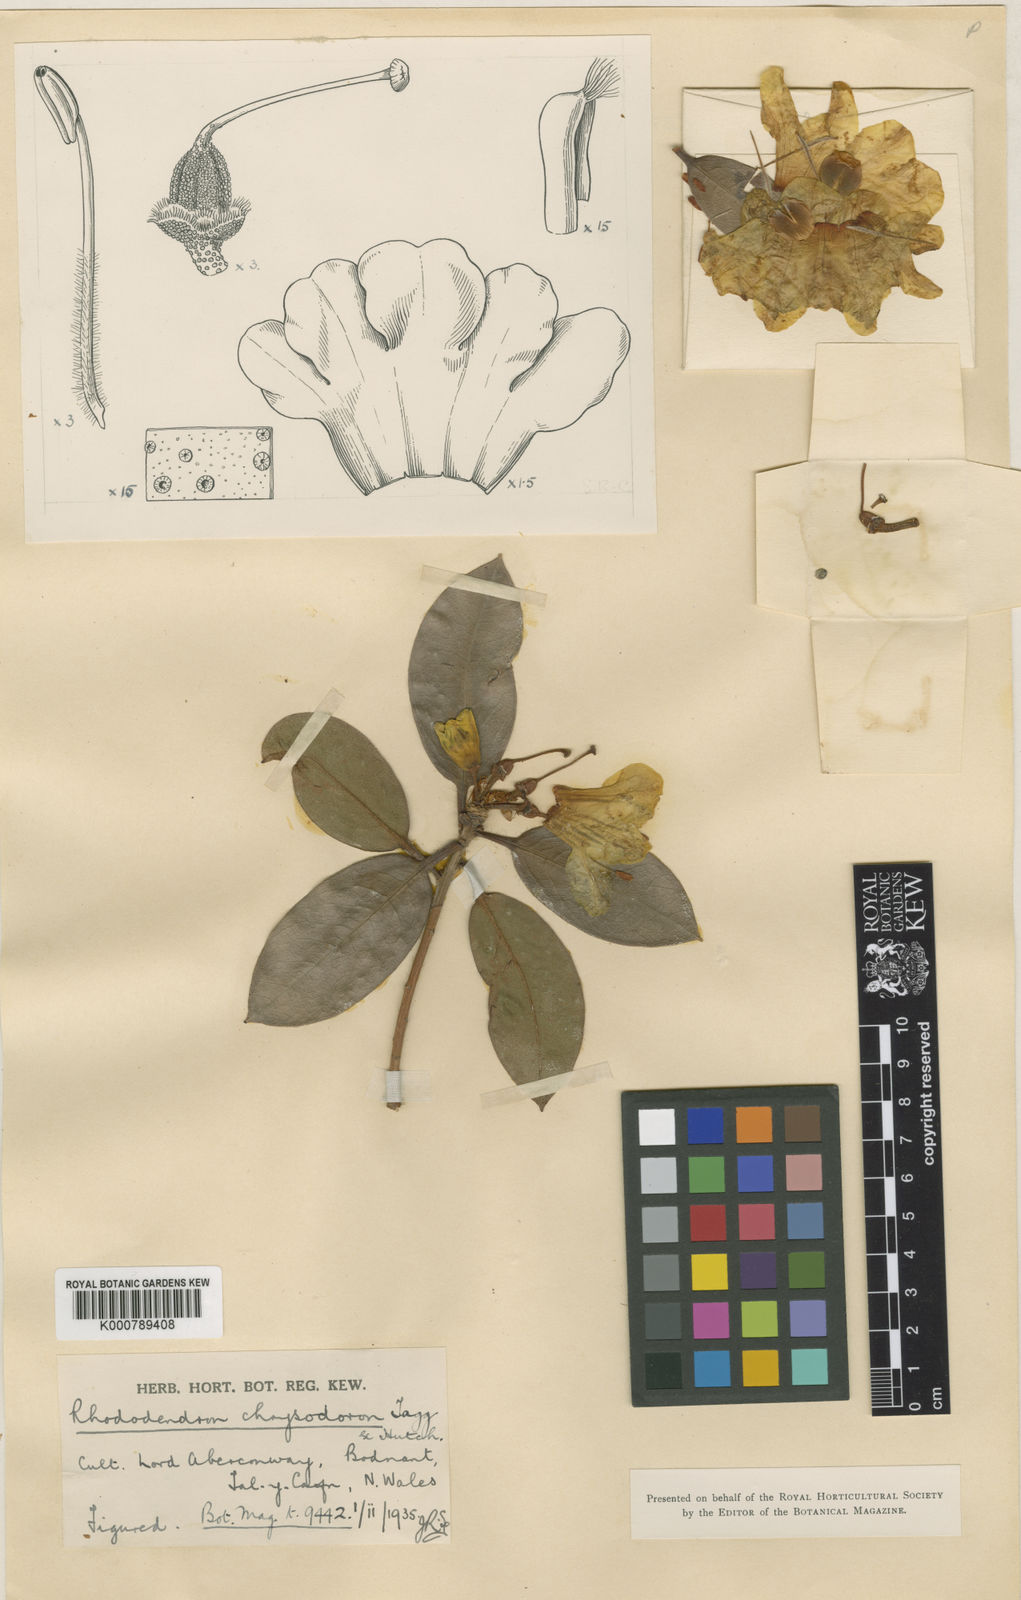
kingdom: Plantae
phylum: Tracheophyta
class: Magnoliopsida
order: Ericales
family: Ericaceae
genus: Rhododendron
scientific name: Rhododendron
